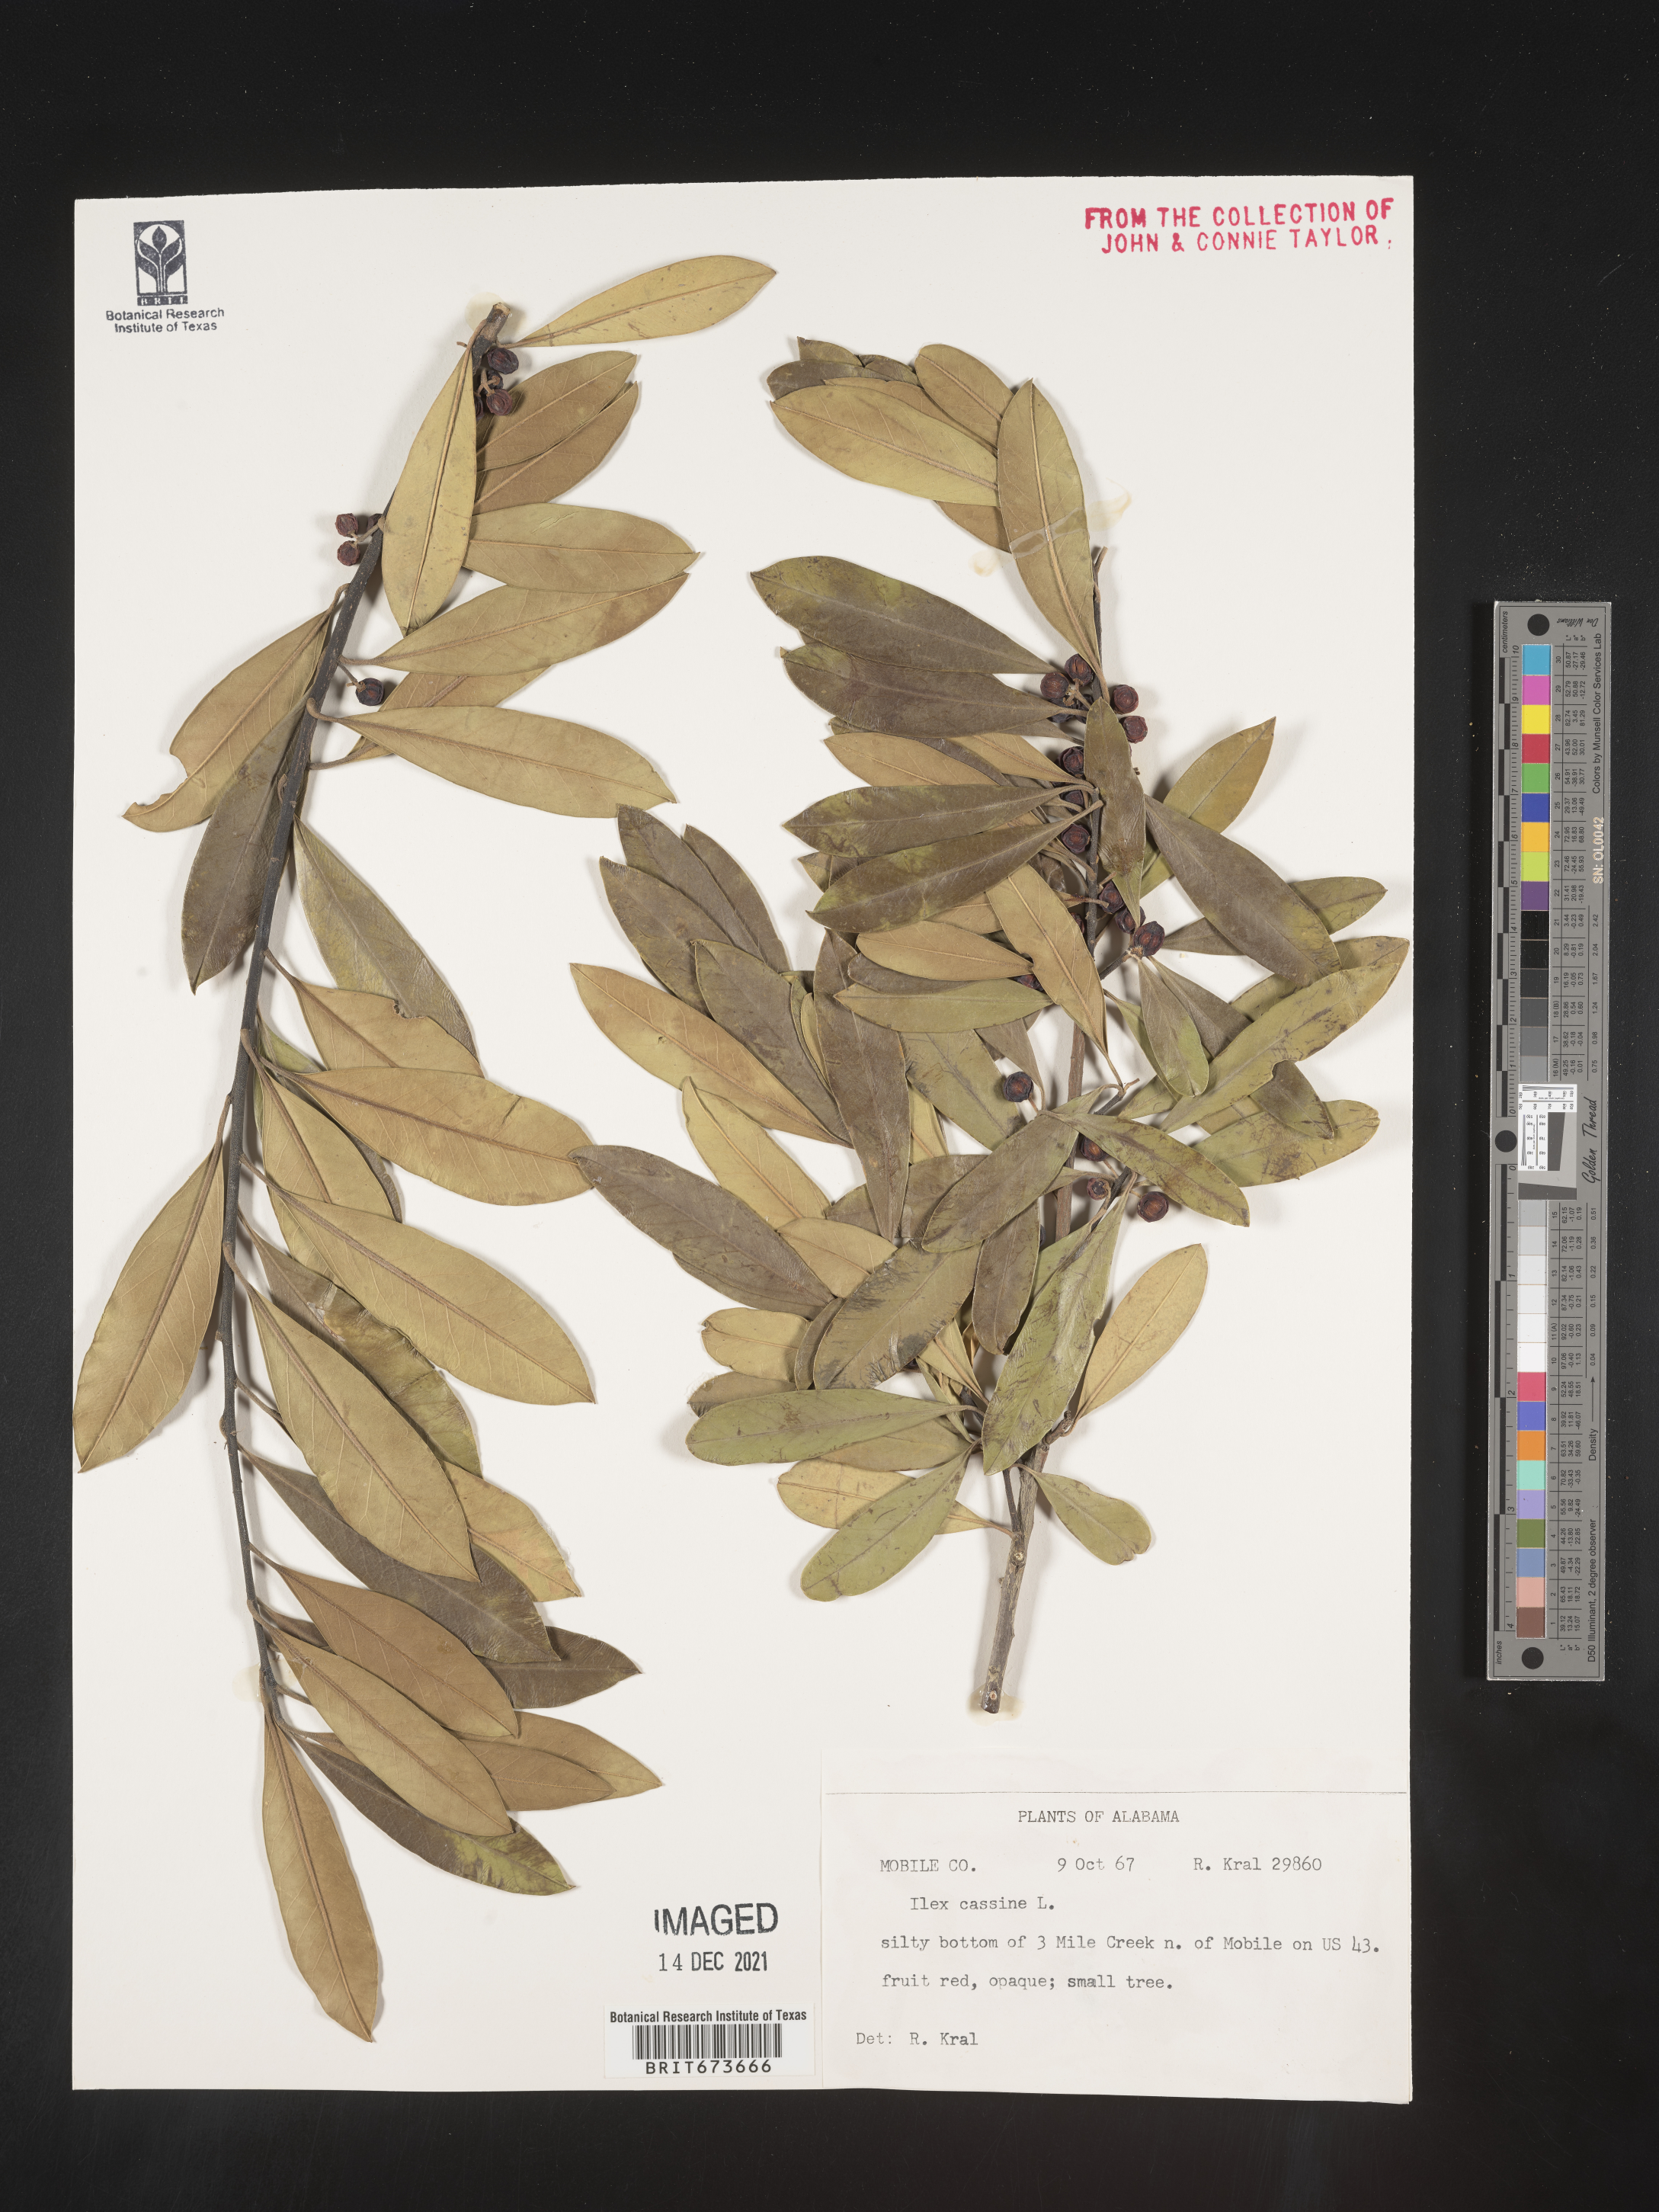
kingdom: Plantae
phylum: Tracheophyta
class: Magnoliopsida
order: Aquifoliales
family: Aquifoliaceae
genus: Ilex
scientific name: Ilex cassine
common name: Dahoon
